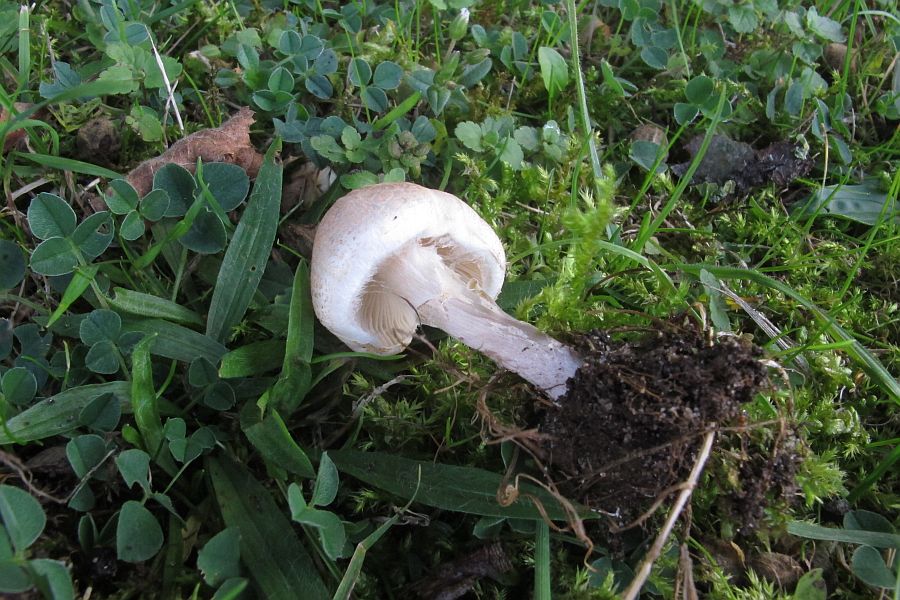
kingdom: Fungi
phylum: Basidiomycota
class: Agaricomycetes
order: Agaricales
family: Agaricaceae
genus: Lepiota
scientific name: Lepiota cristata
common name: stinkende parasolhat
